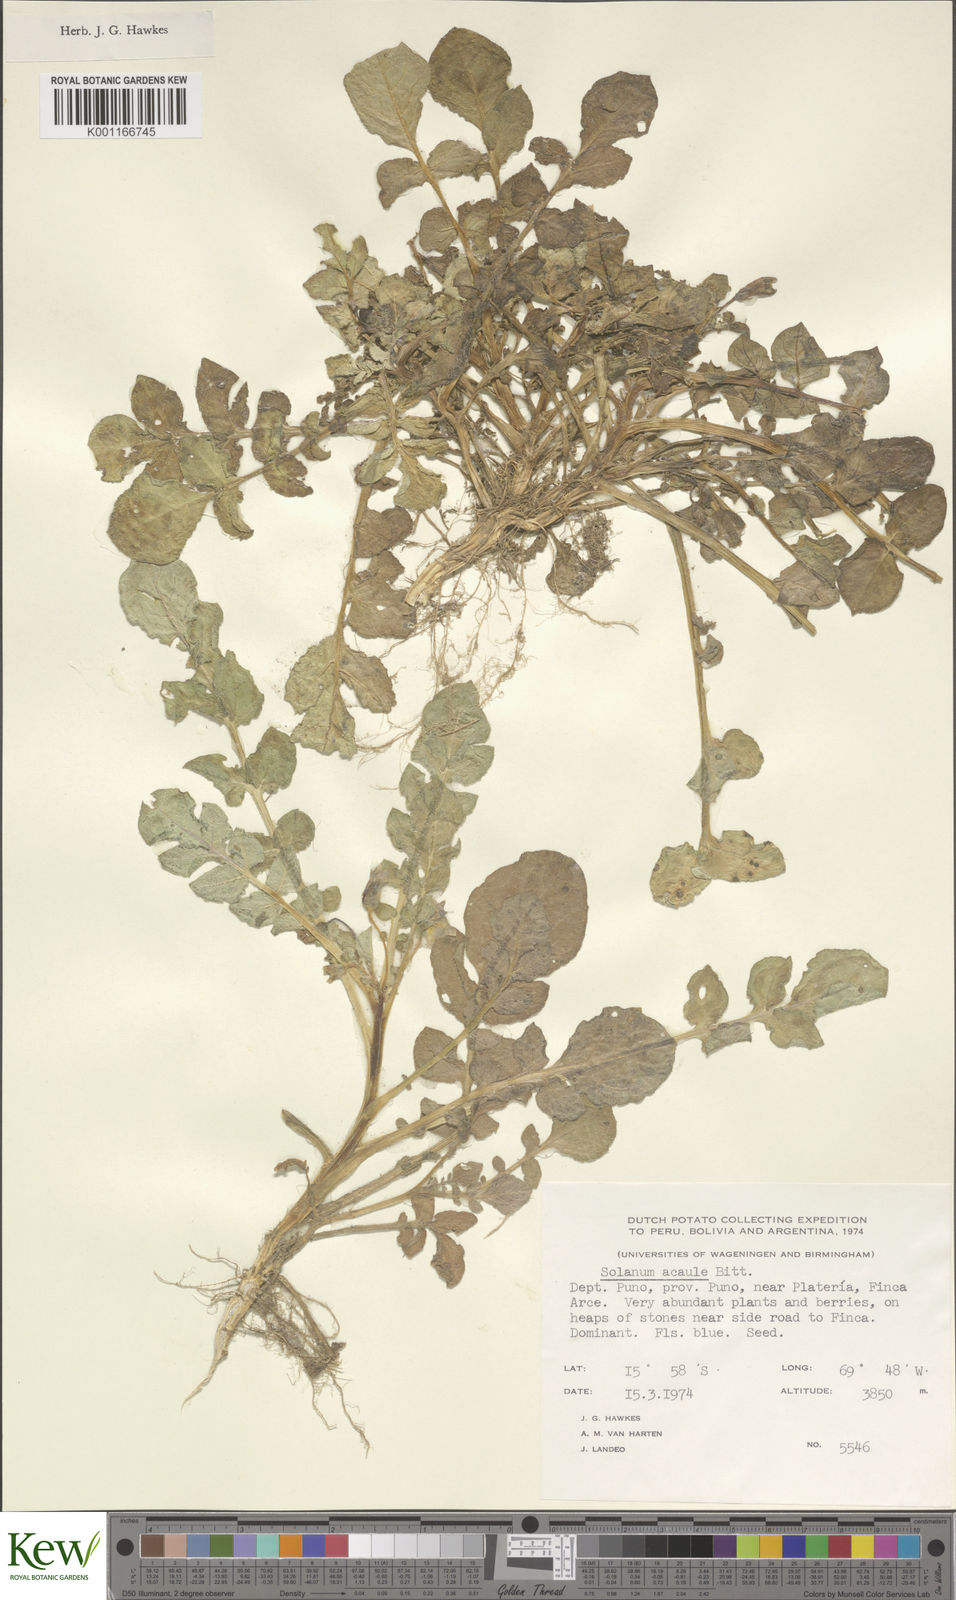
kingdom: Plantae
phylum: Tracheophyta
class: Magnoliopsida
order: Solanales
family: Solanaceae
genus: Solanum
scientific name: Solanum acaule
